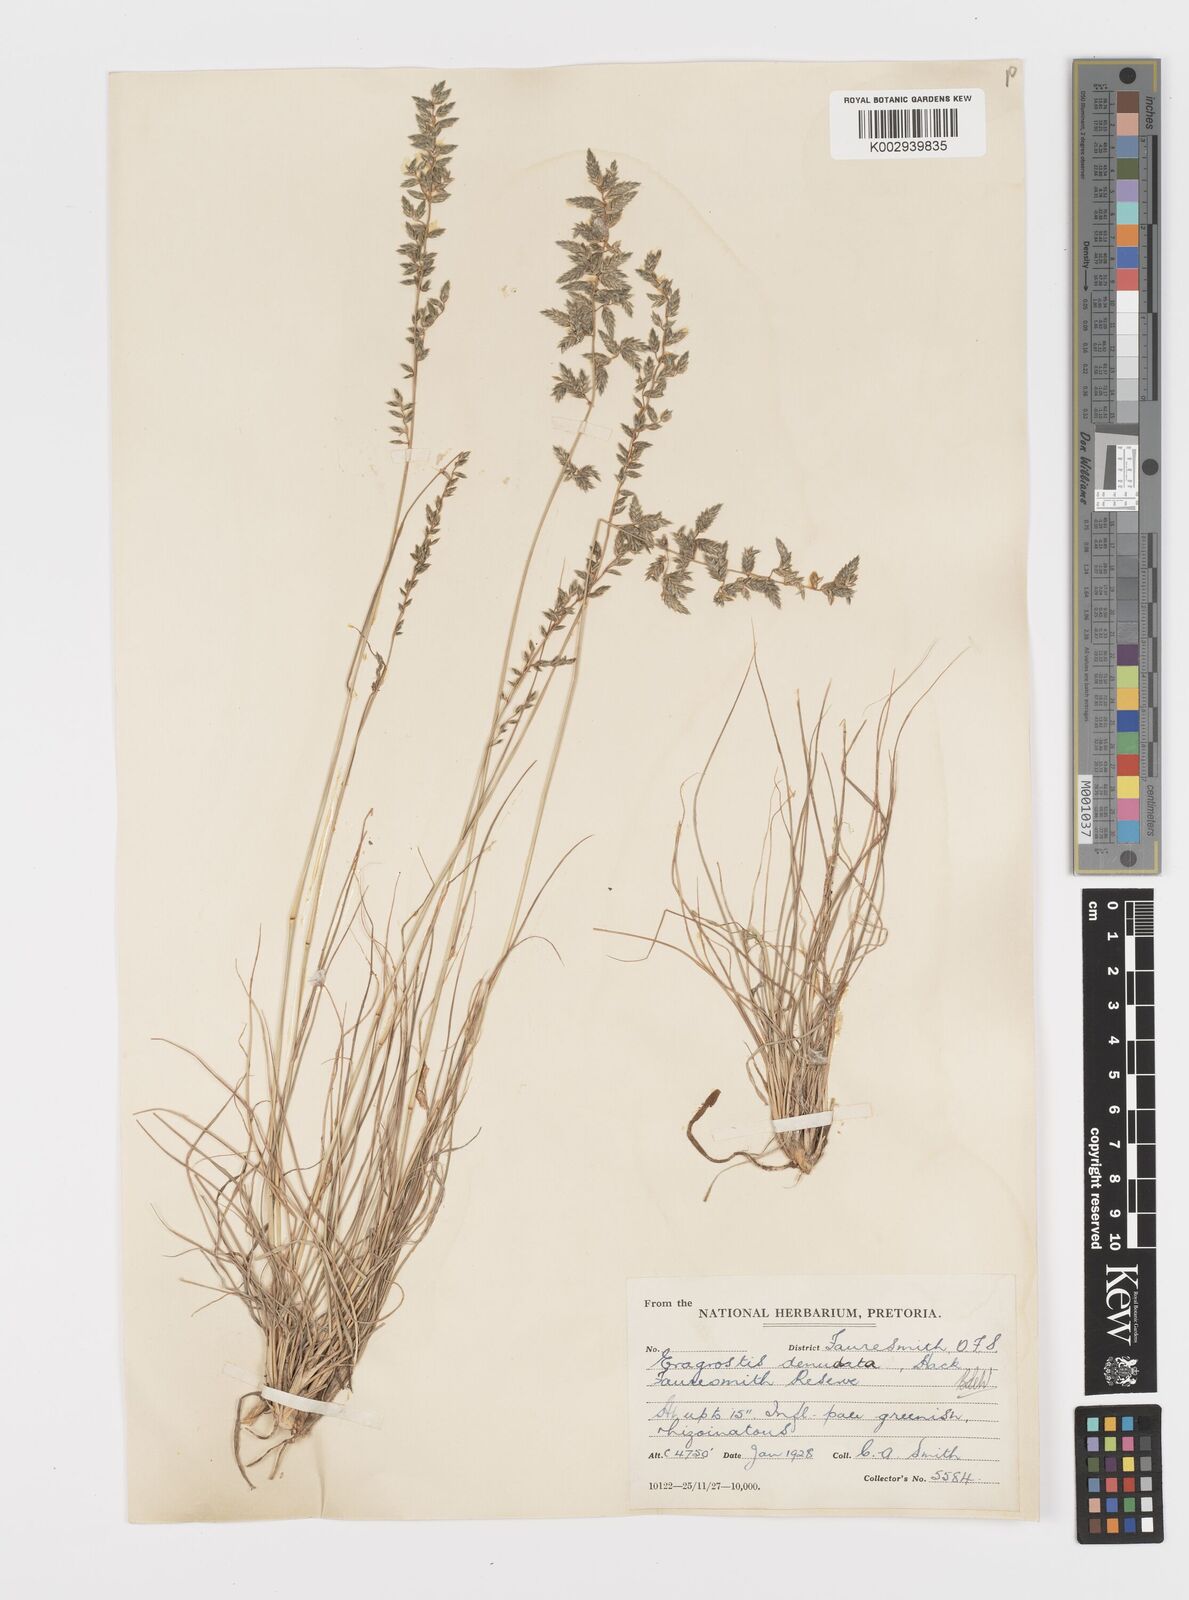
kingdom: Plantae
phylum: Tracheophyta
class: Liliopsida
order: Poales
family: Poaceae
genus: Eragrostis
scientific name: Eragrostis nindensis
